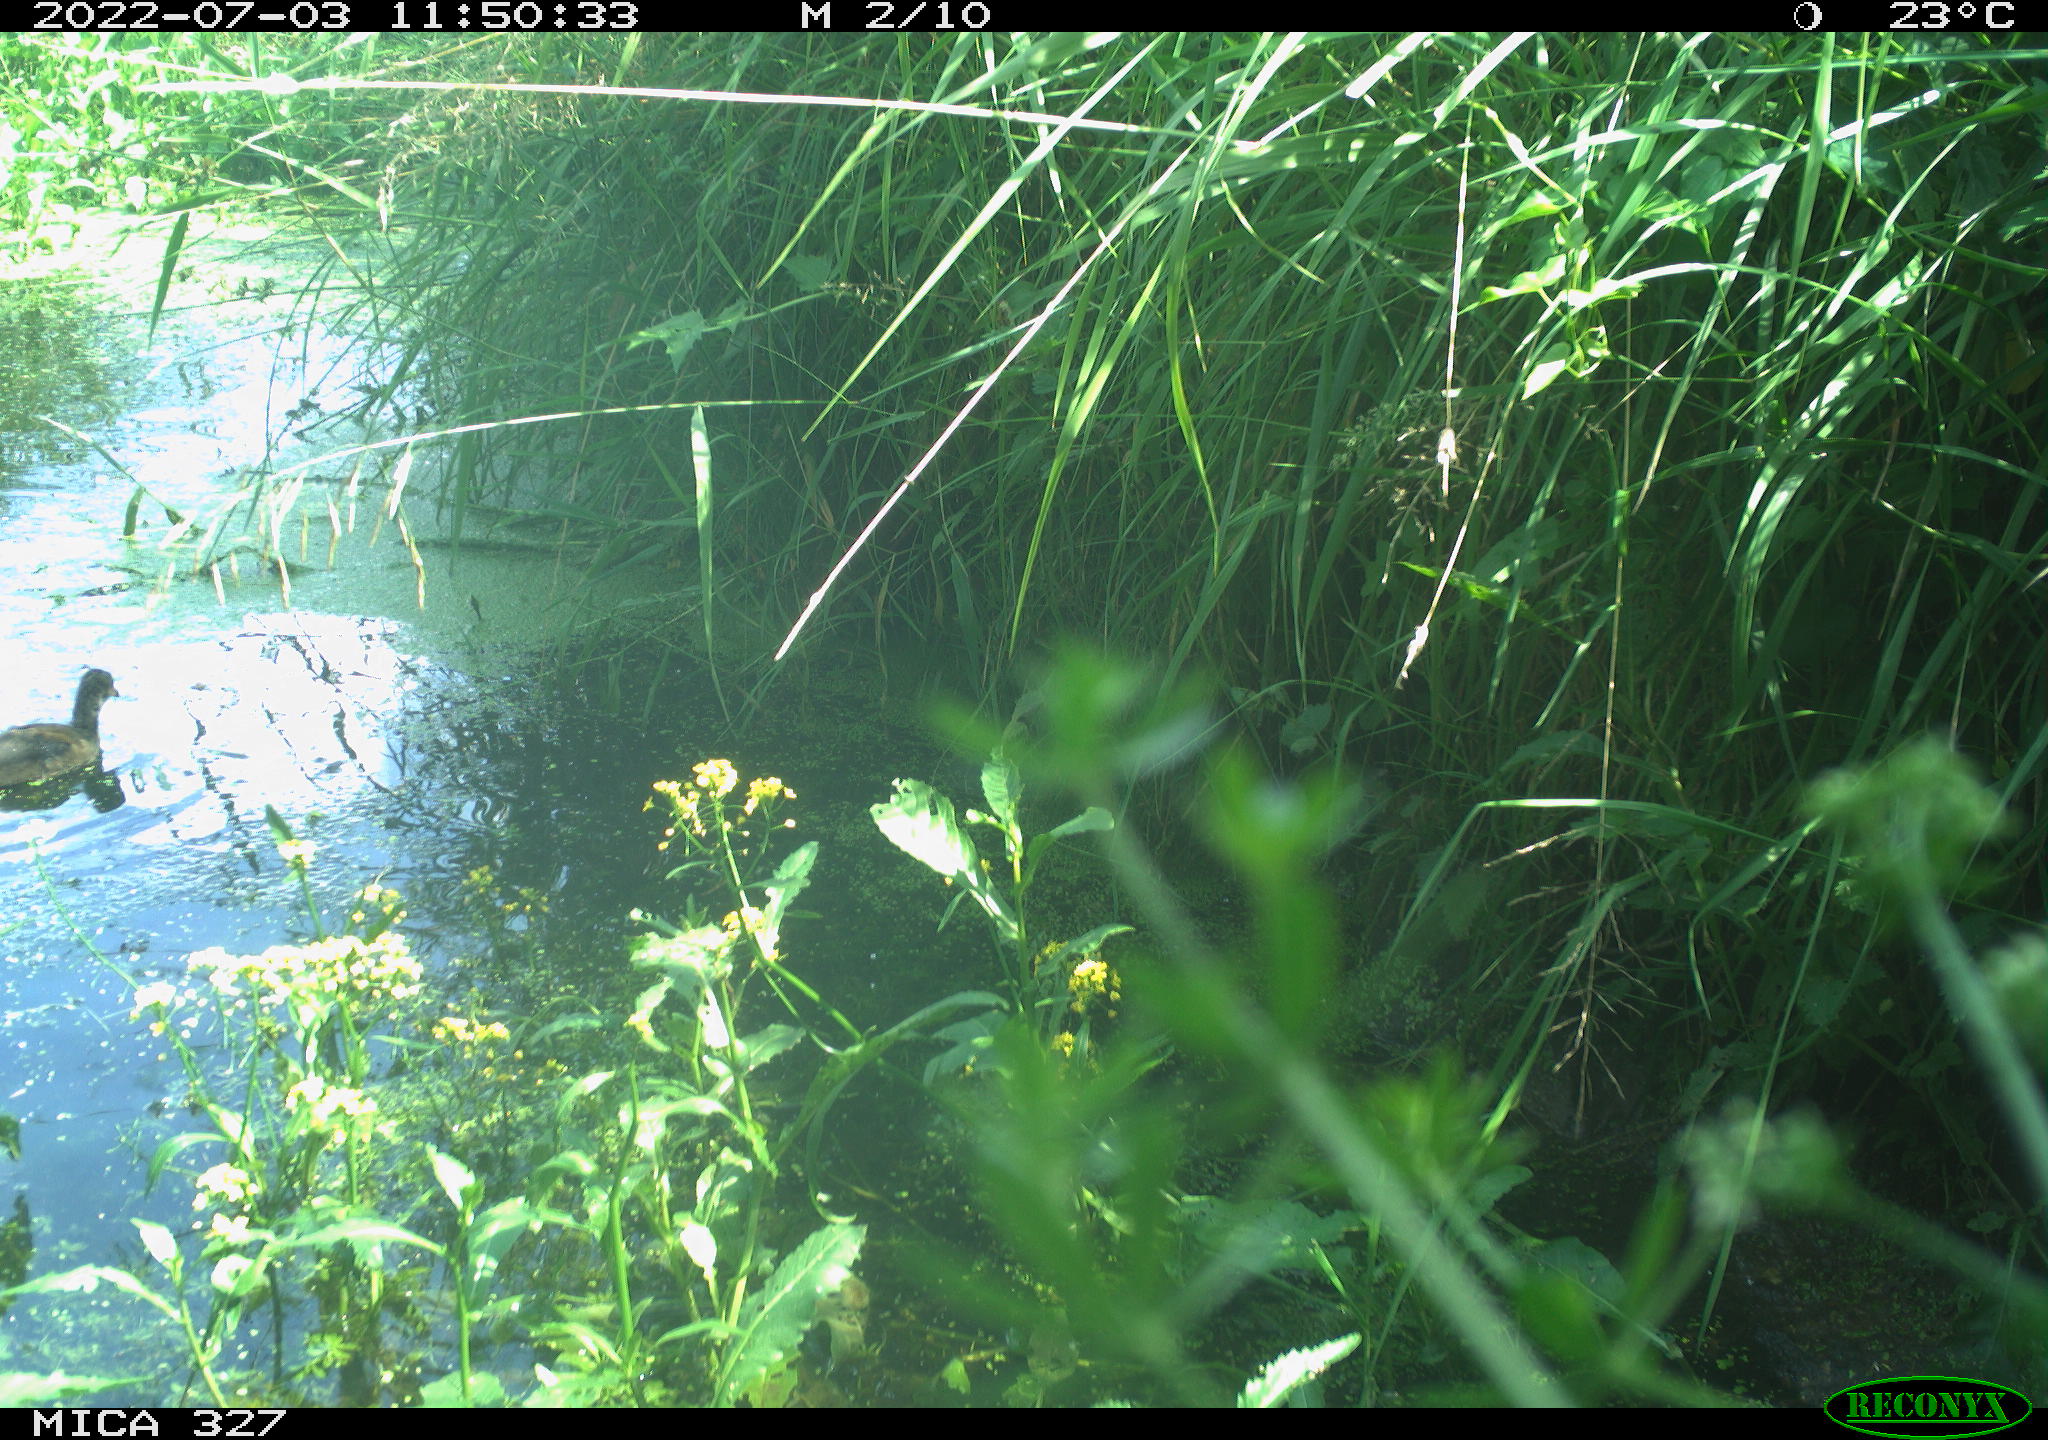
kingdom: Animalia
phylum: Chordata
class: Aves
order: Gruiformes
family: Rallidae
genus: Gallinula
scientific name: Gallinula chloropus
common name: Common moorhen
